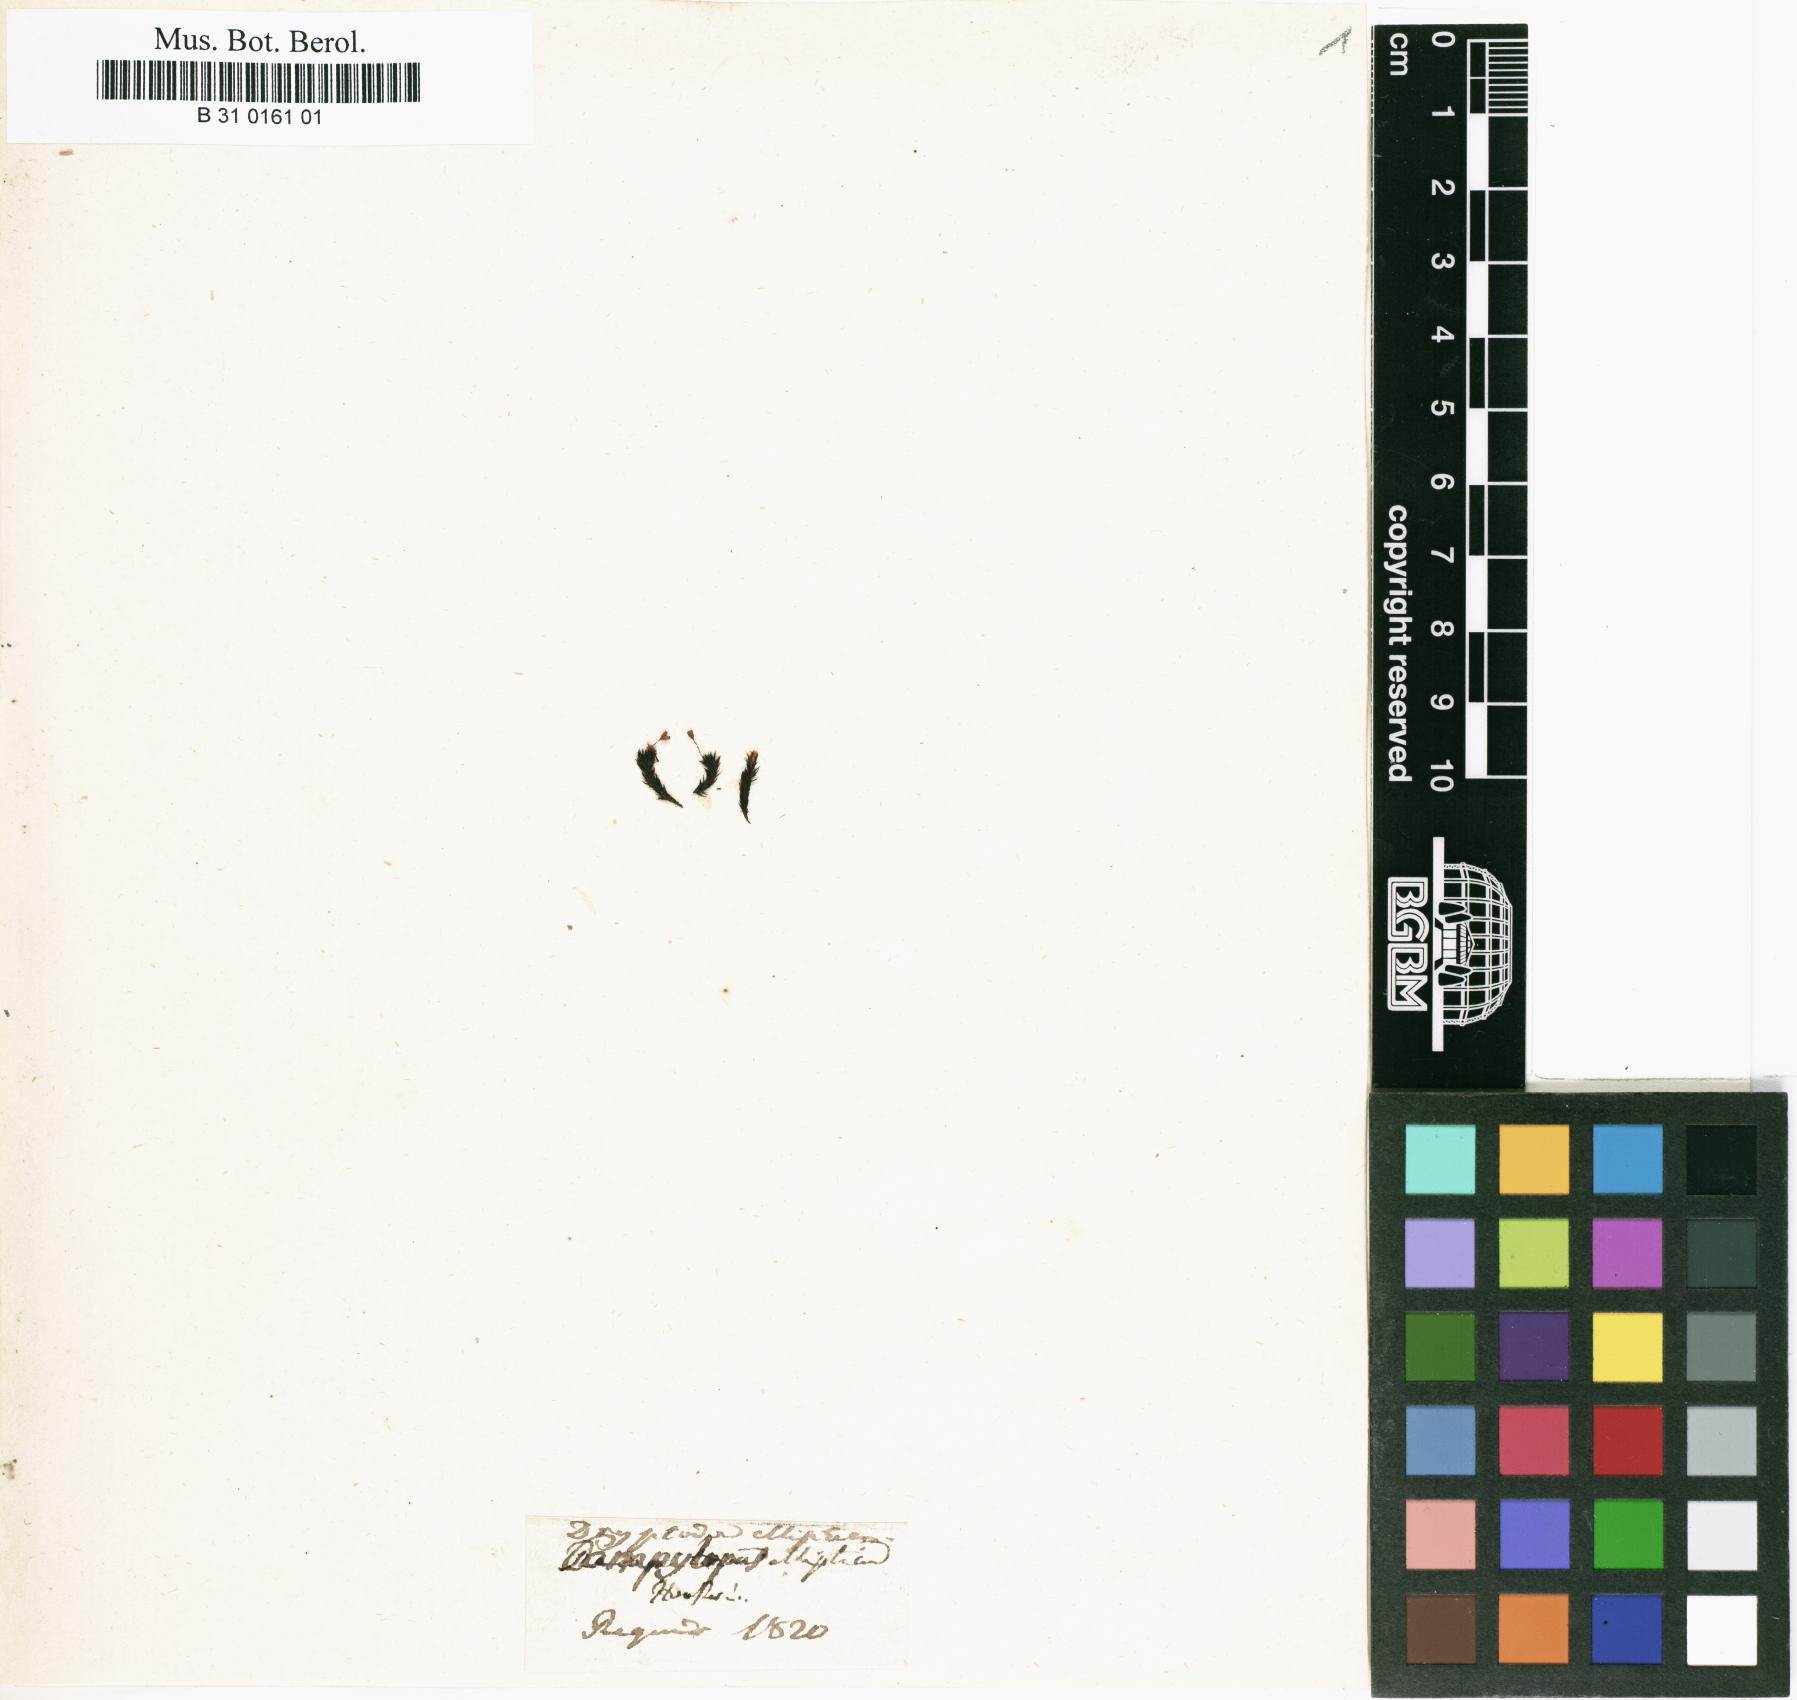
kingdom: Plantae
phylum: Bryophyta
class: Bryopsida
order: Grimmiales
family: Grimmiaceae
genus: Bucklandiella
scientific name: Bucklandiella elliptica
